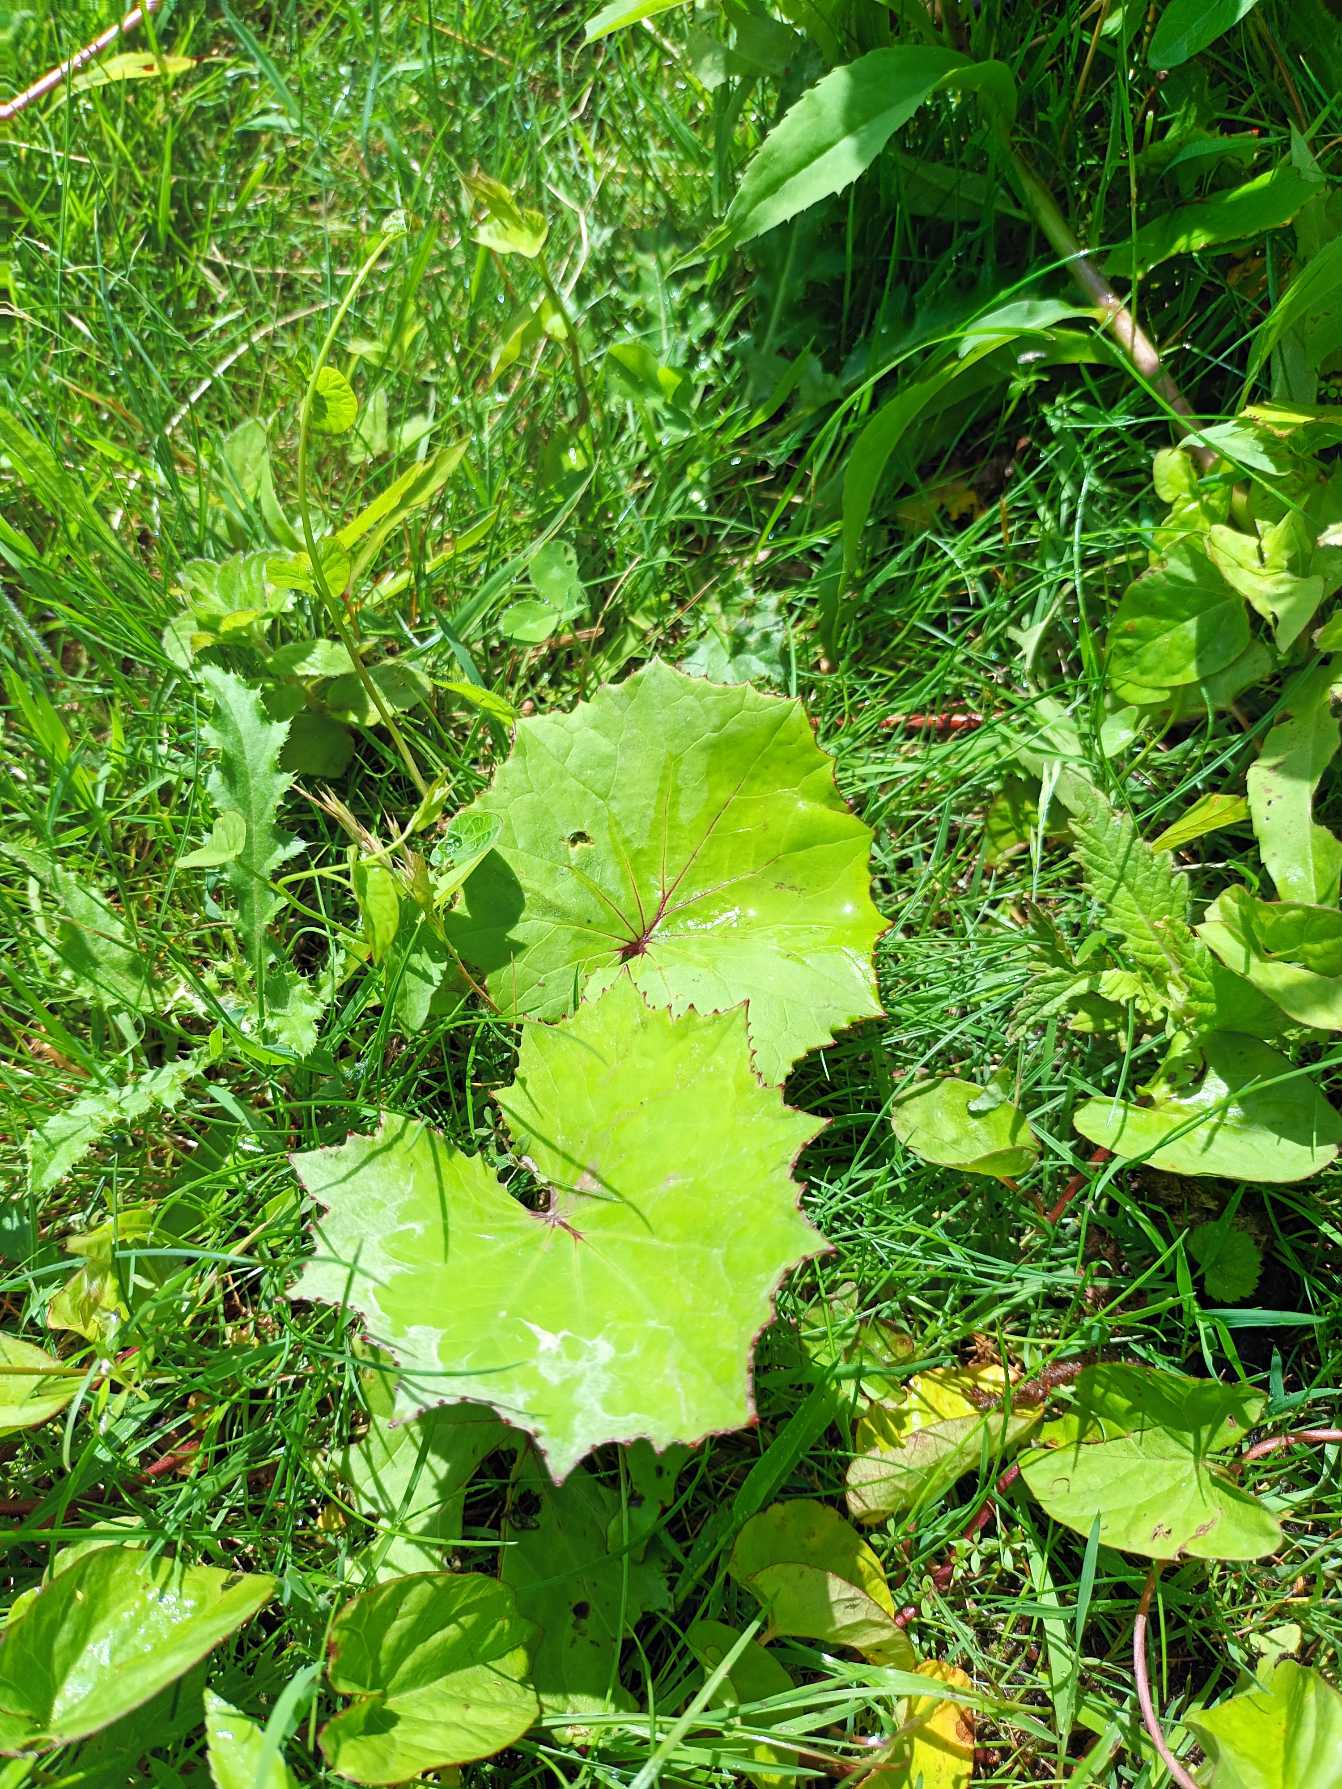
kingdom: Plantae
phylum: Tracheophyta
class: Magnoliopsida
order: Asterales
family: Asteraceae
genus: Tussilago
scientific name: Tussilago farfara
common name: Følfod
